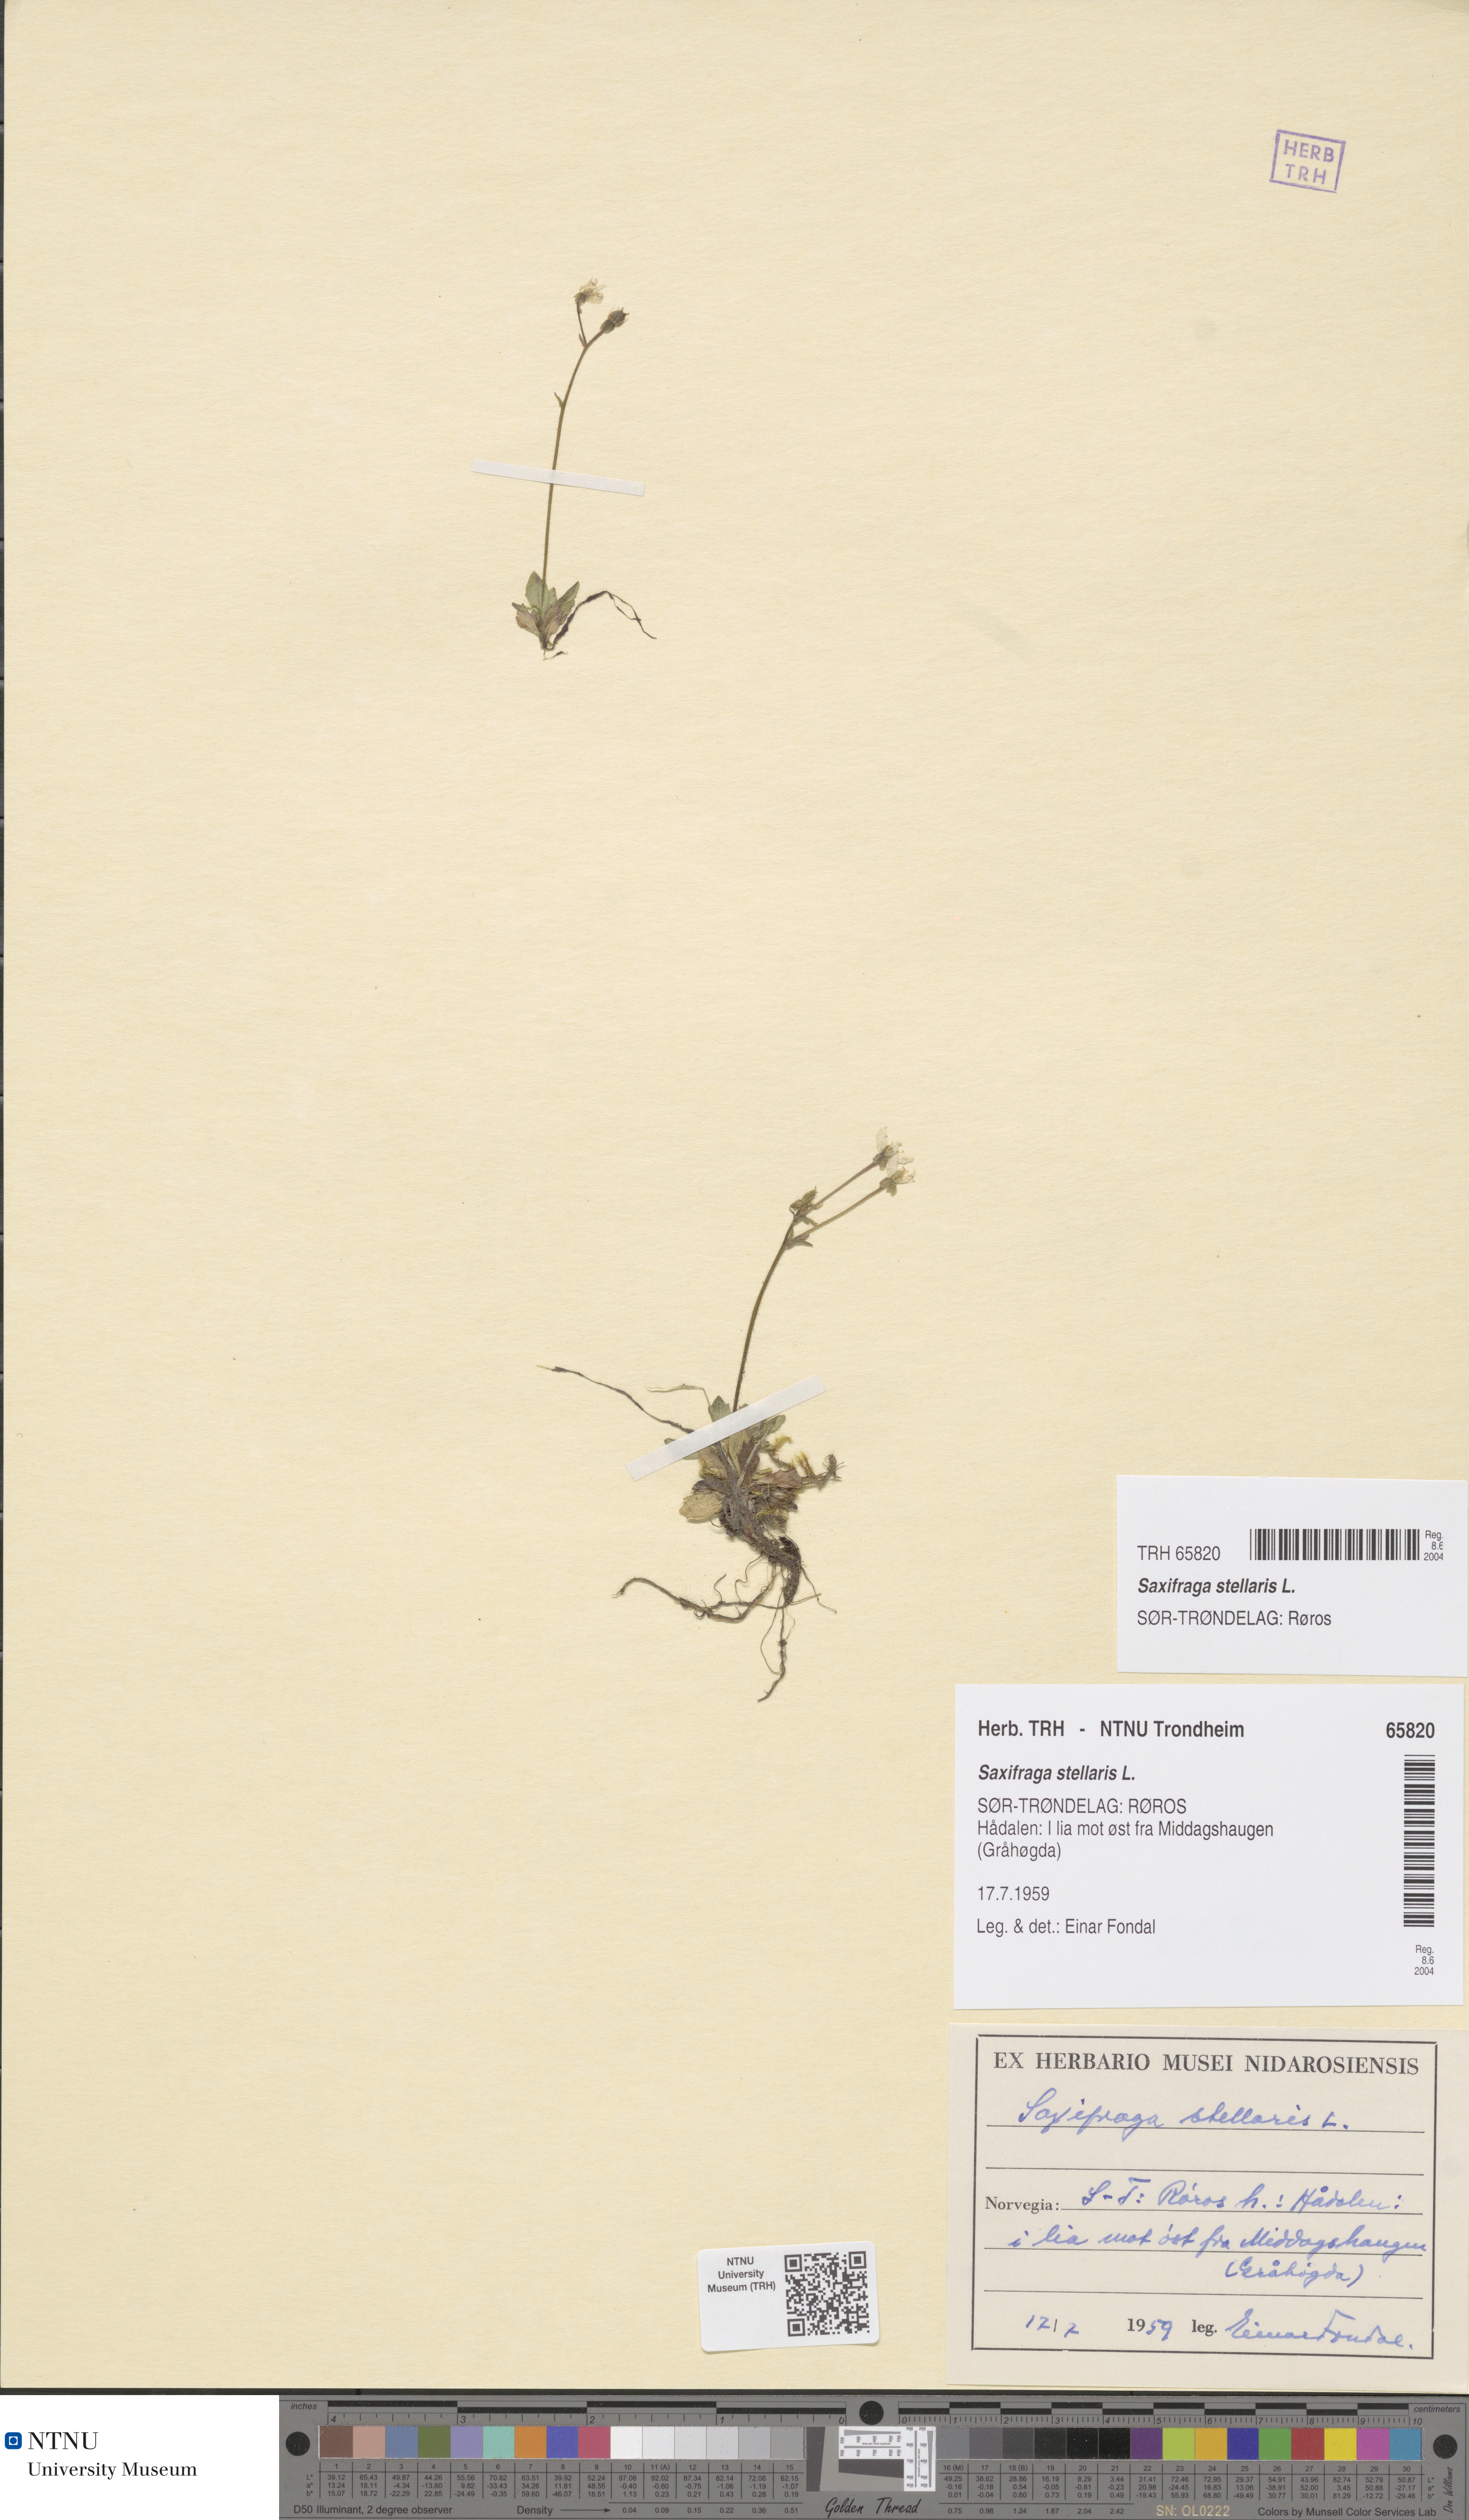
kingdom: Plantae
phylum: Tracheophyta
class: Magnoliopsida
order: Saxifragales
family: Saxifragaceae
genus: Micranthes
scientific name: Micranthes stellaris
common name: Starry saxifrage
